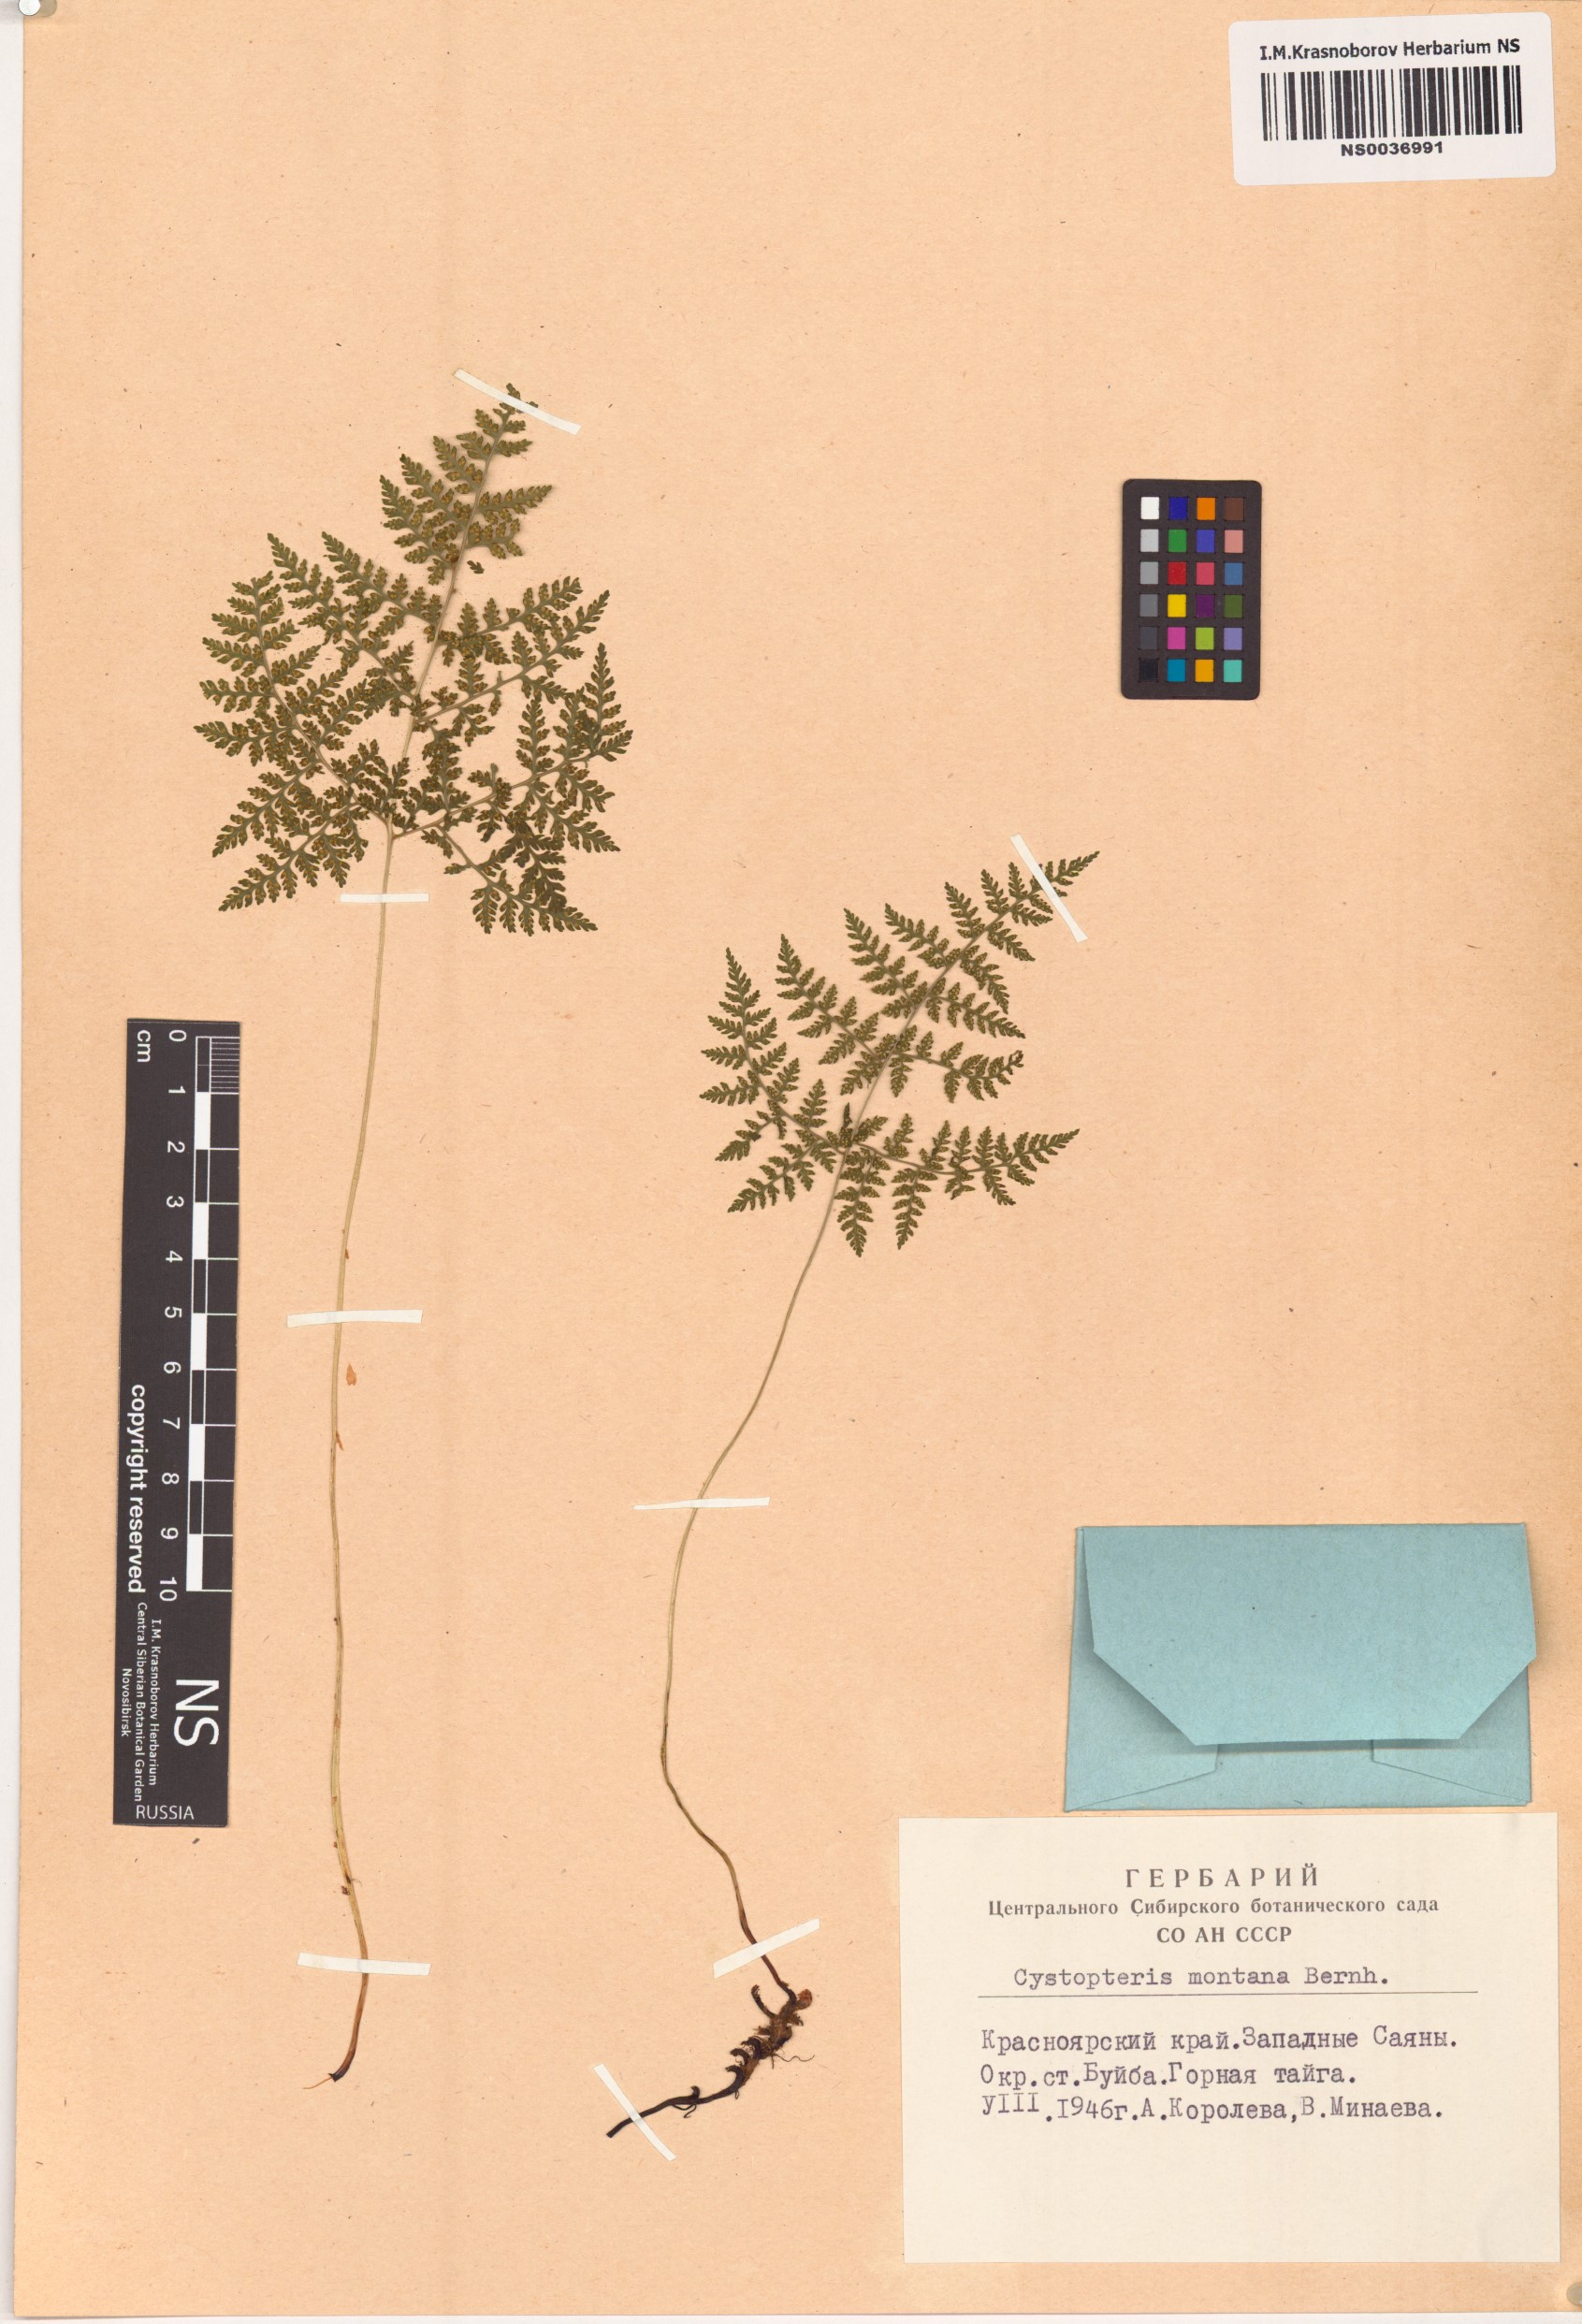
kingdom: Plantae
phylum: Tracheophyta
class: Polypodiopsida
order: Polypodiales
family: Cystopteridaceae
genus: Cystopteris
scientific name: Cystopteris montana
